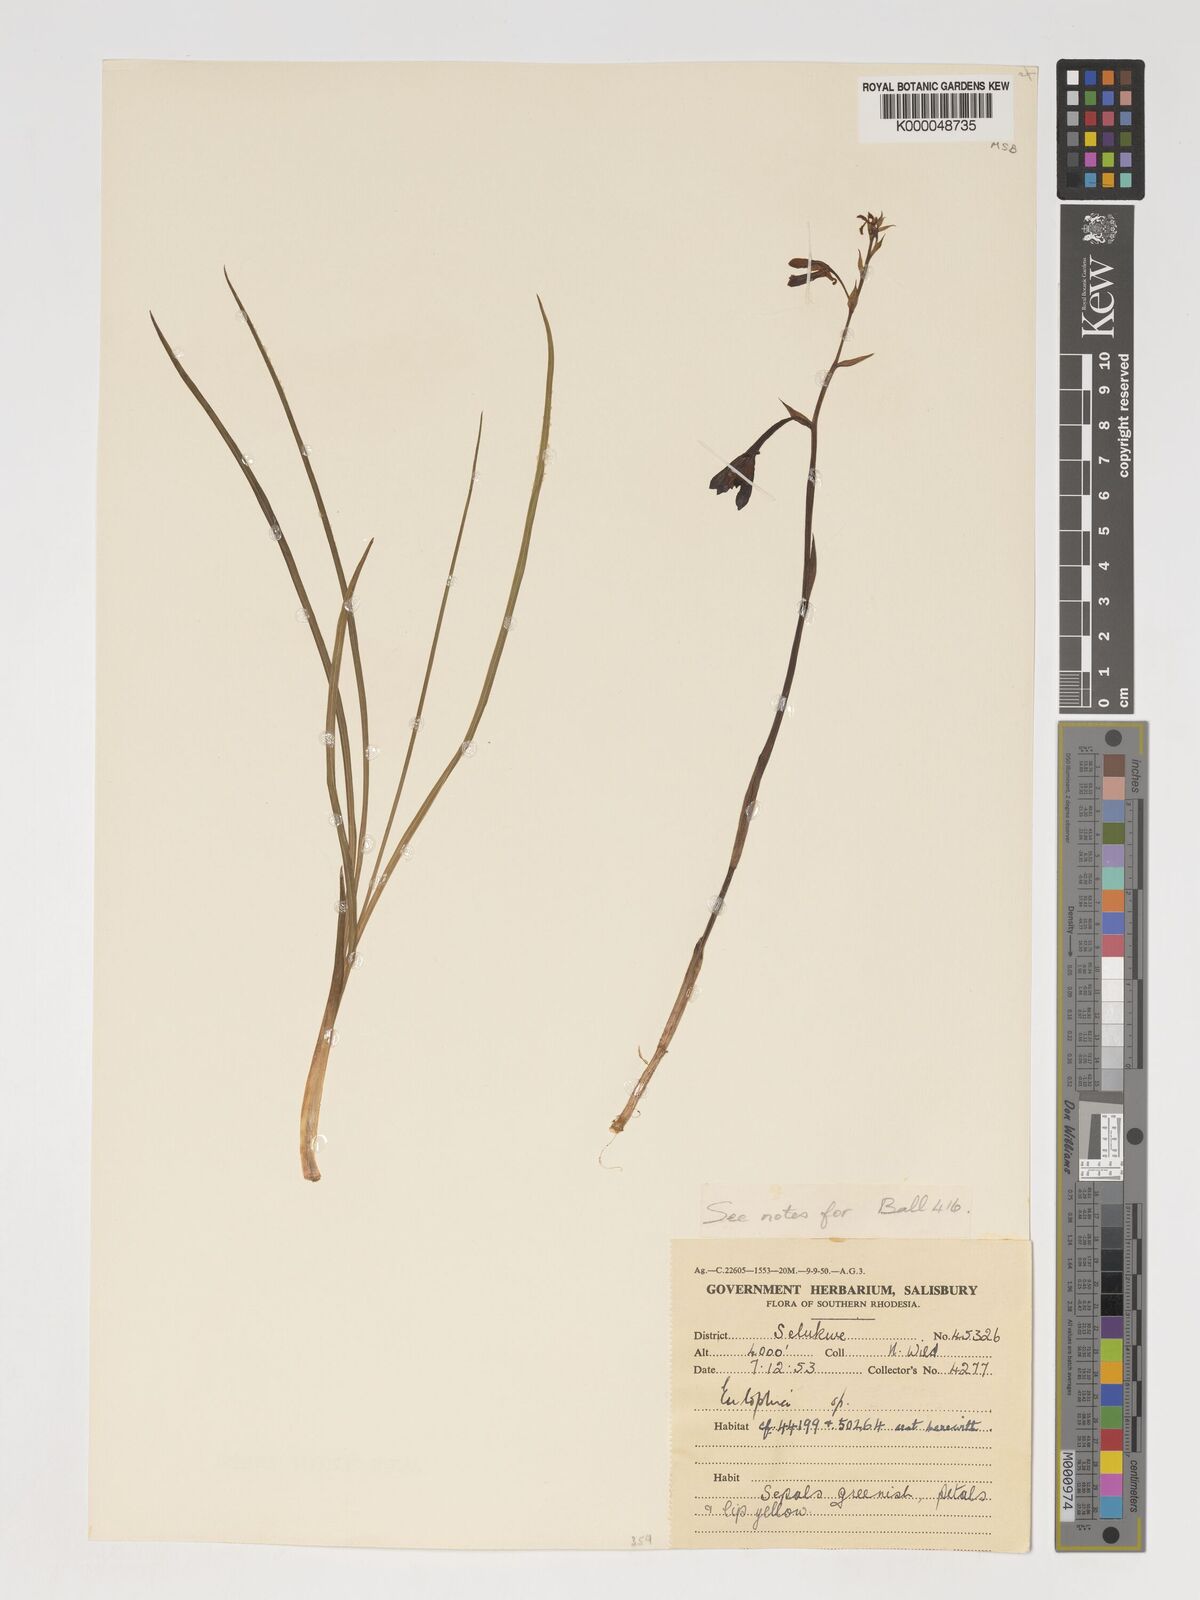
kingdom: Plantae
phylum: Tracheophyta
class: Liliopsida
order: Asparagales
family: Orchidaceae
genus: Eulophia
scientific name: Eulophia monticola
